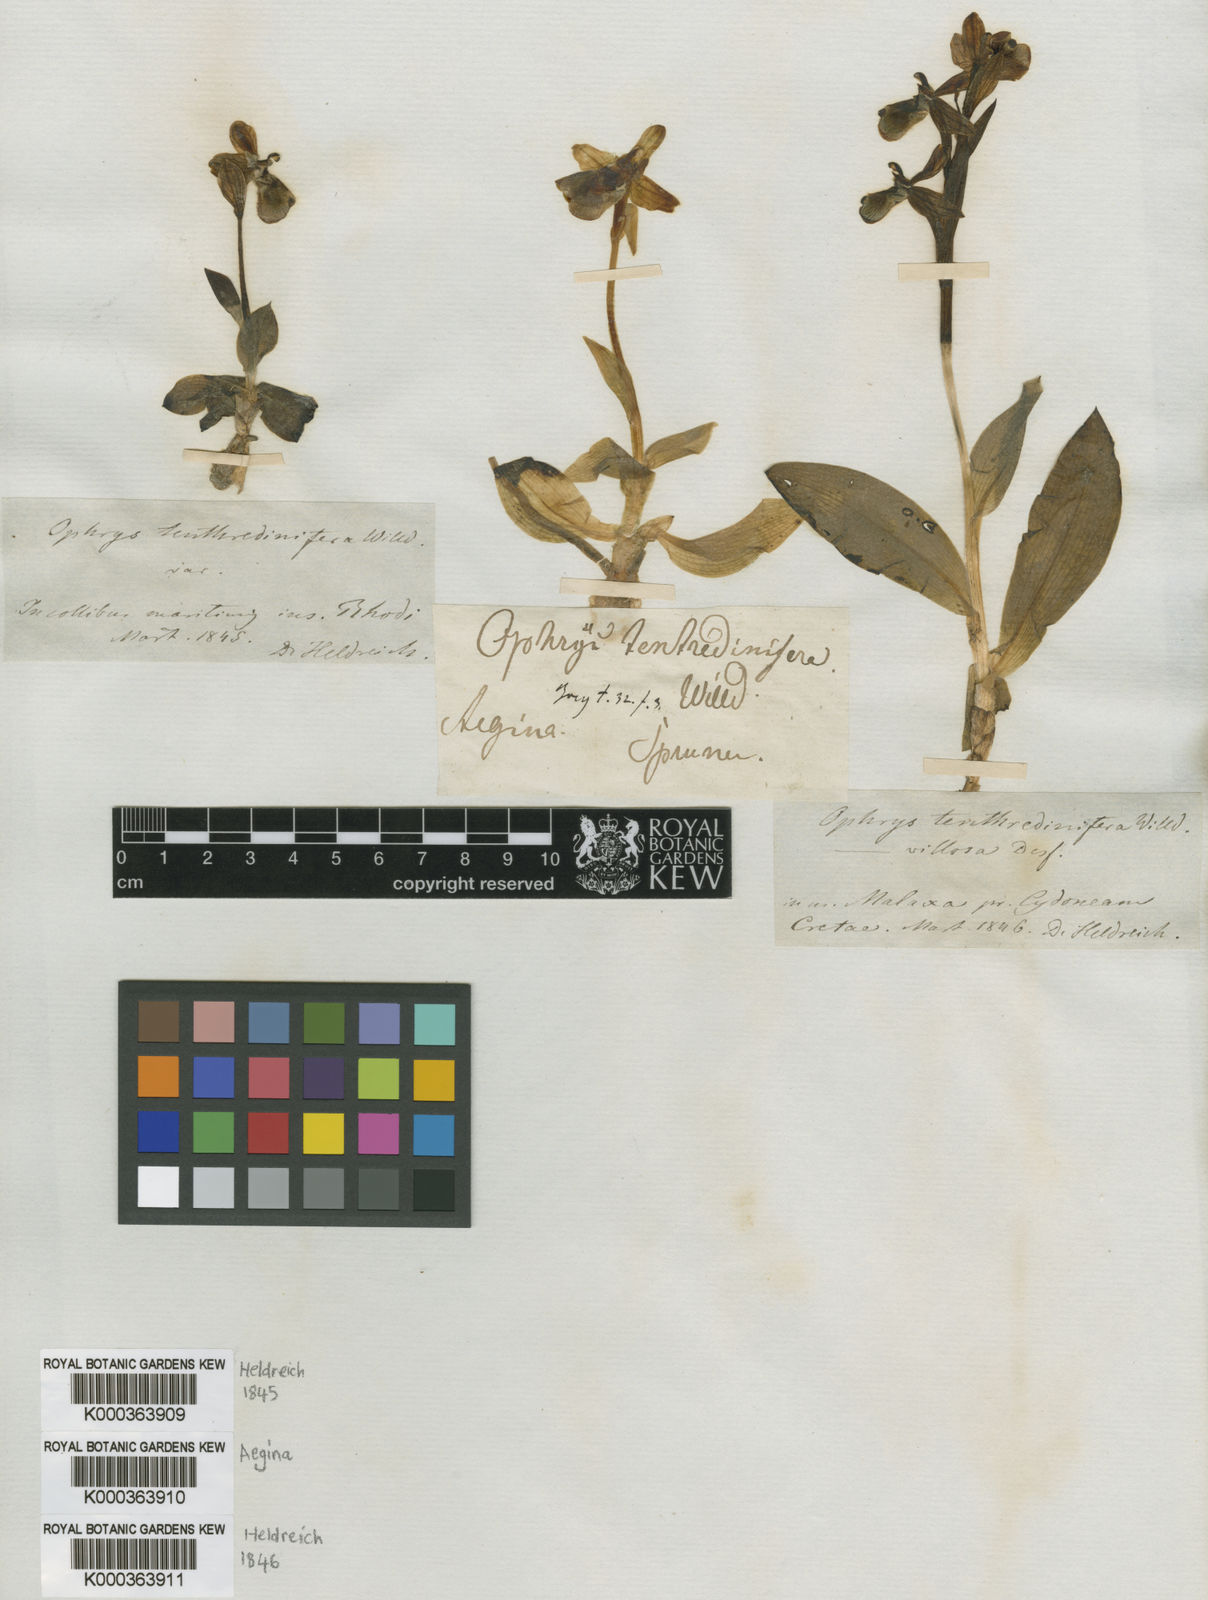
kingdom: Plantae
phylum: Tracheophyta
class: Liliopsida
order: Asparagales
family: Orchidaceae
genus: Ophrys
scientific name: Ophrys tenthredinifera
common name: Sawfly orchid
